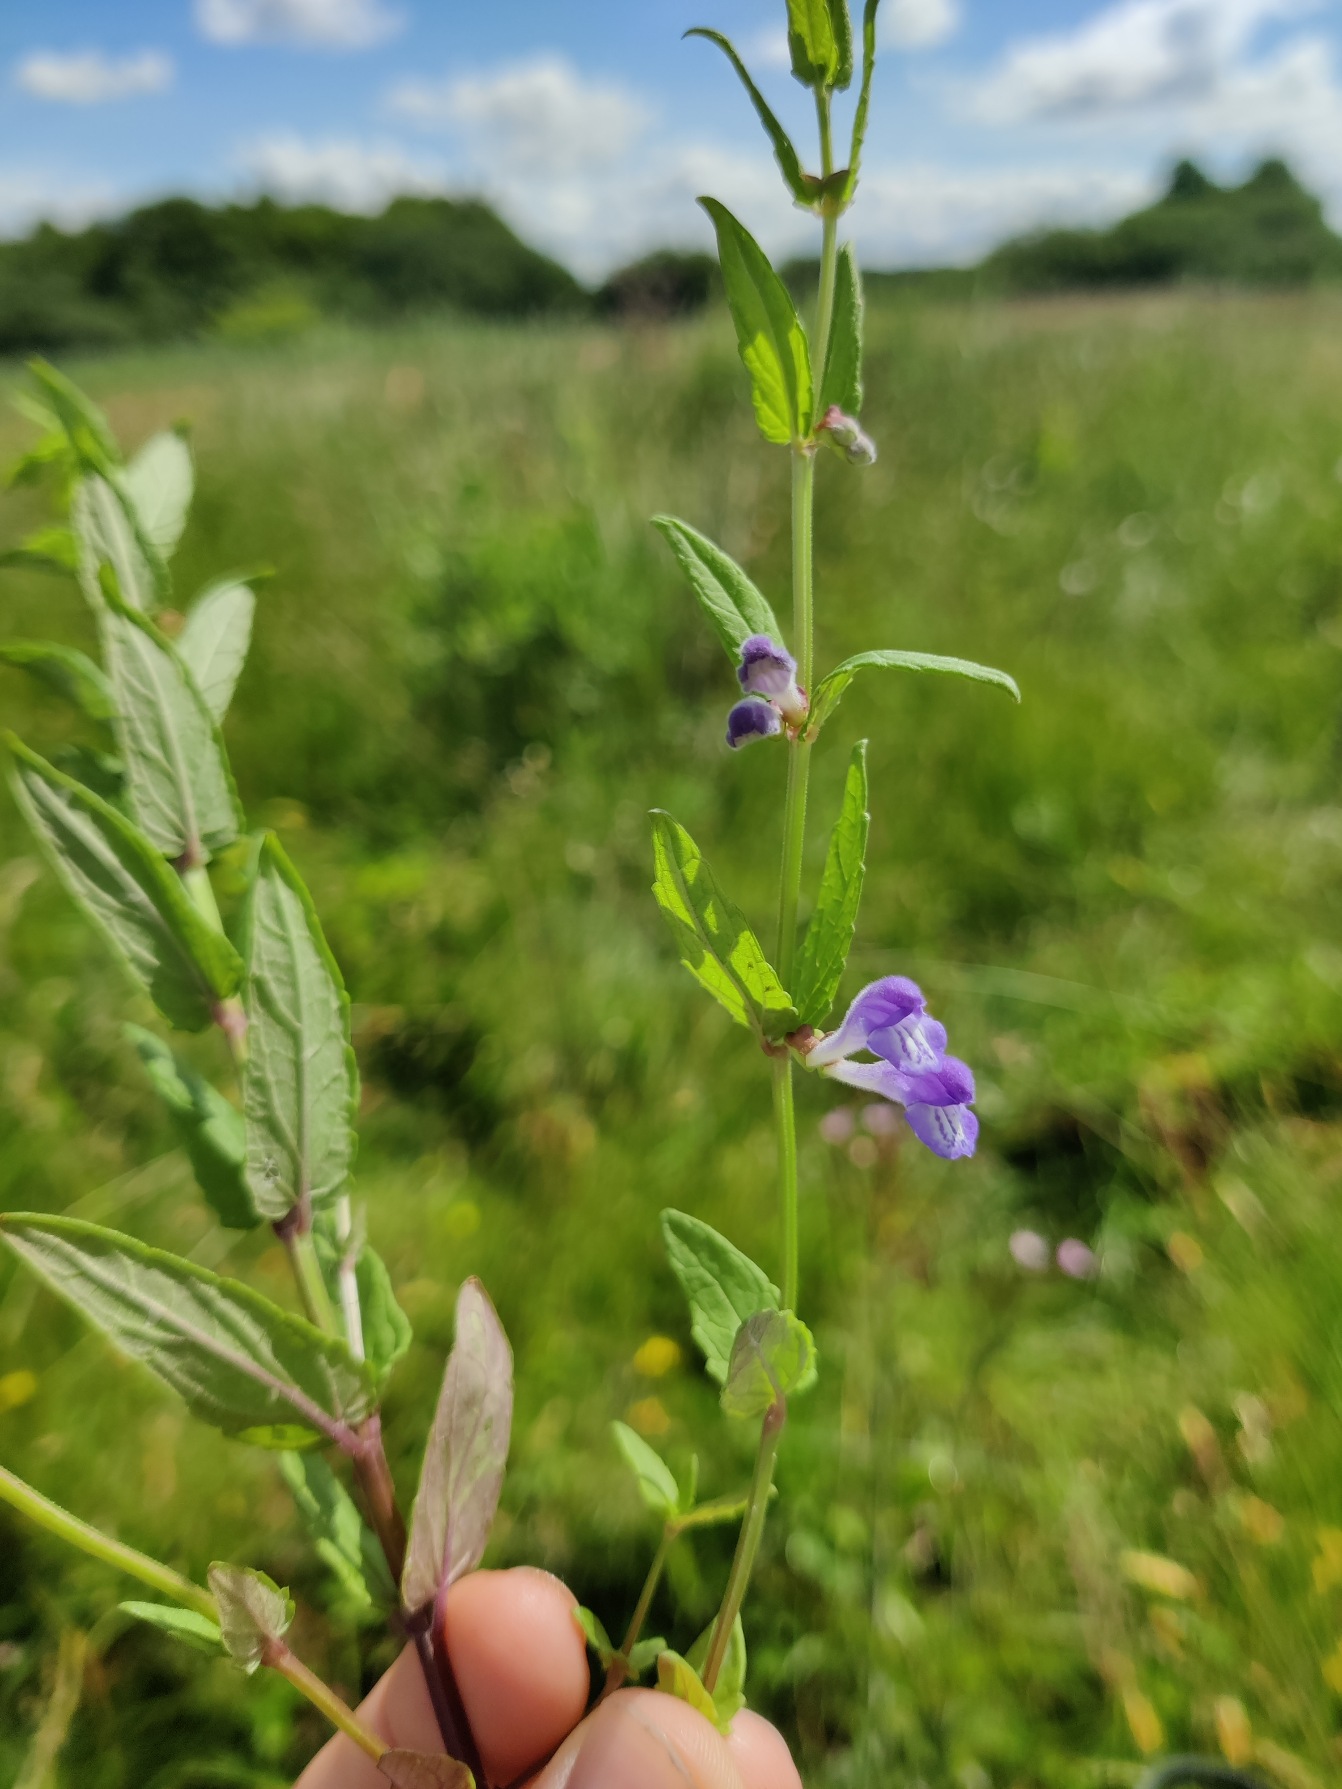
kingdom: Plantae
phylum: Tracheophyta
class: Magnoliopsida
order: Lamiales
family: Lamiaceae
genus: Scutellaria
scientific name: Scutellaria galericulata
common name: Almindelig skjolddrager
